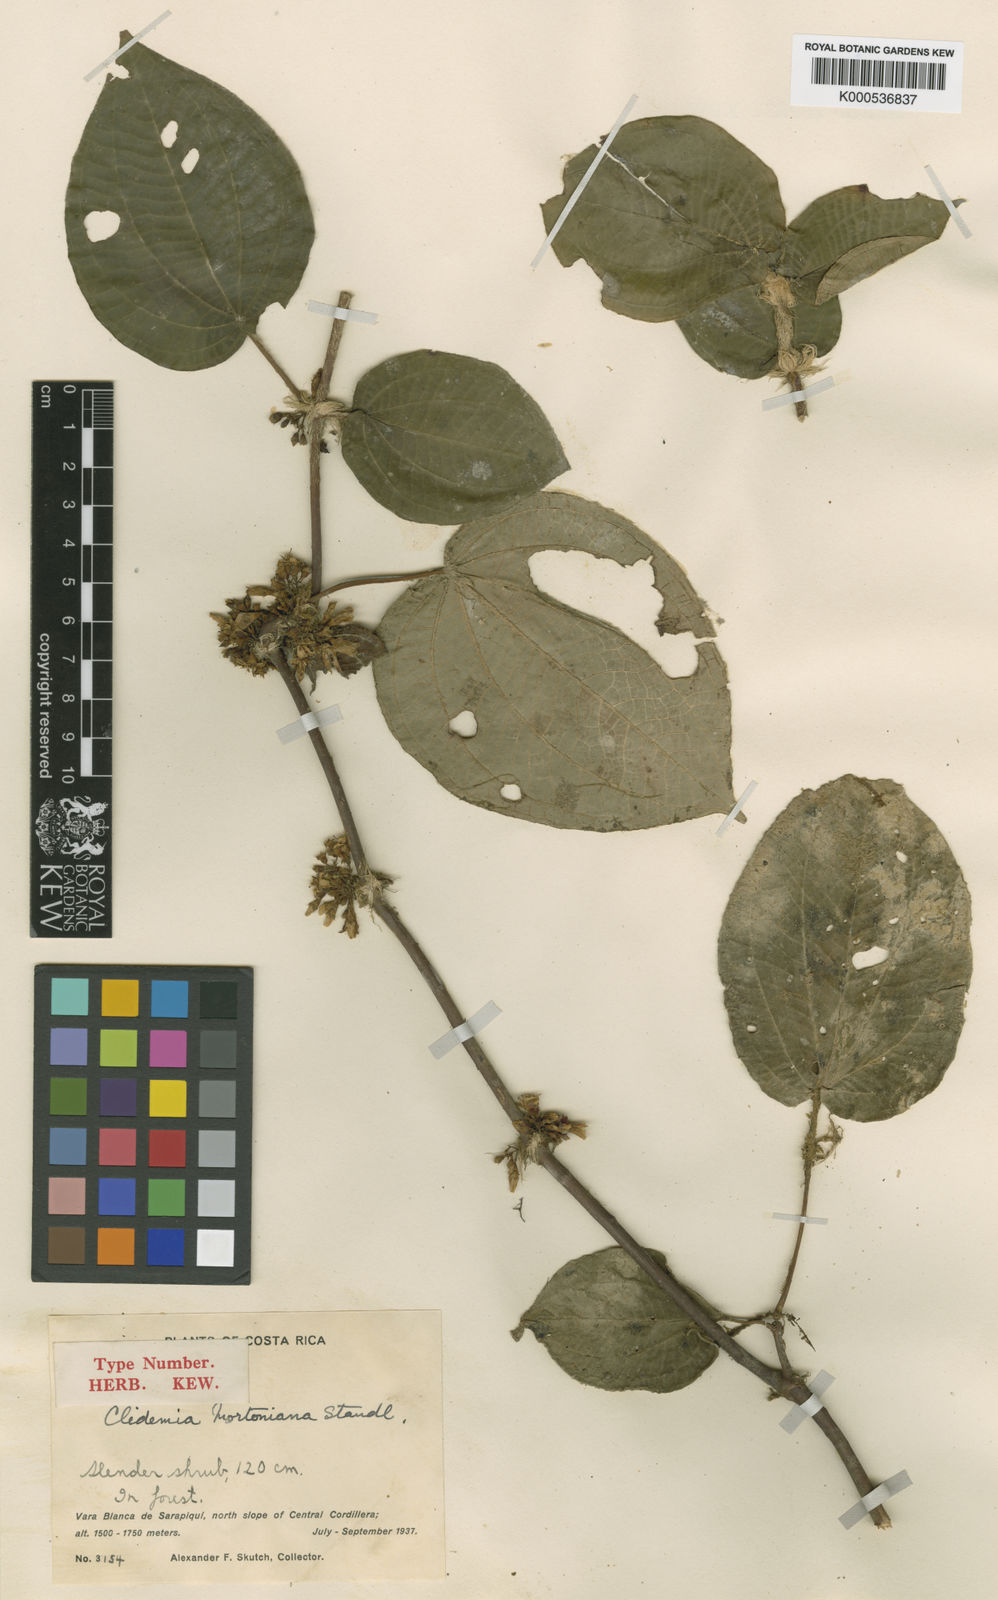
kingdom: Plantae
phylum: Tracheophyta
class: Magnoliopsida
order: Myrtales
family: Melastomataceae
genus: Miconia
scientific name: Miconia mortoniana
